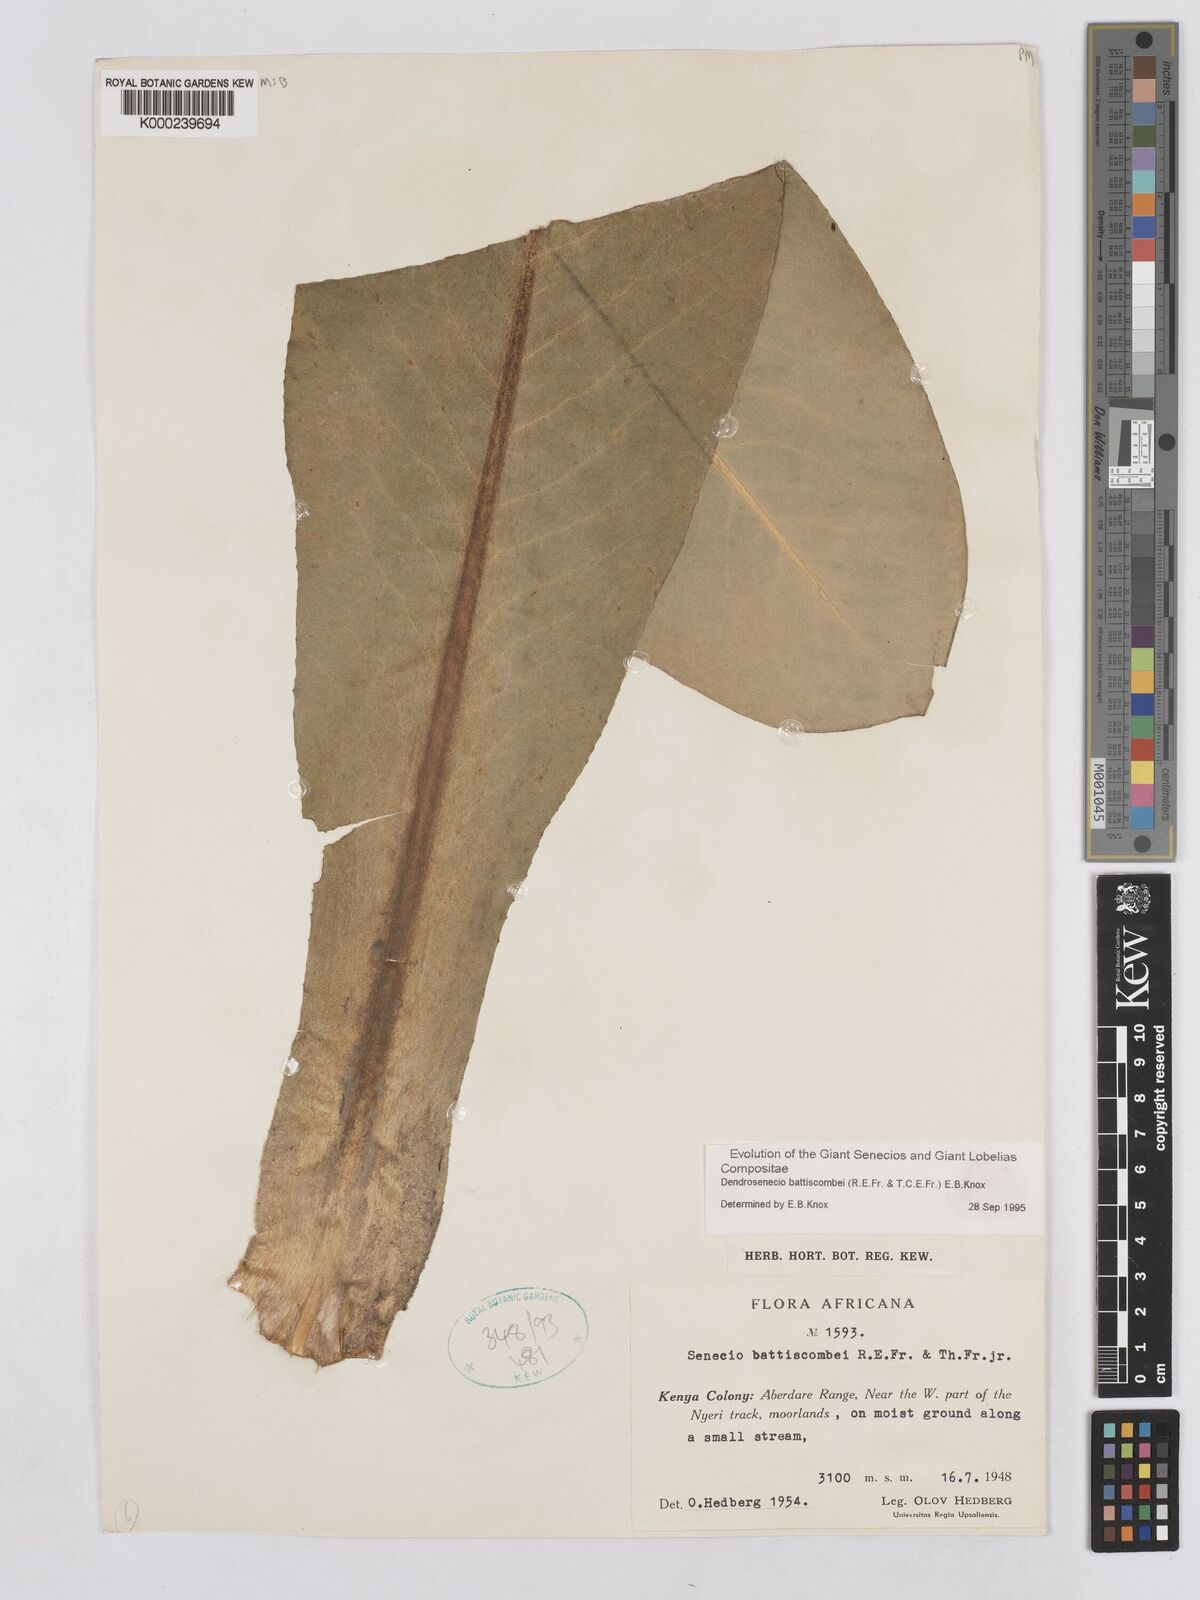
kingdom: Plantae
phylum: Tracheophyta
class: Magnoliopsida
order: Asterales
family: Asteraceae
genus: Dendrosenecio
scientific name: Dendrosenecio battiscombei
